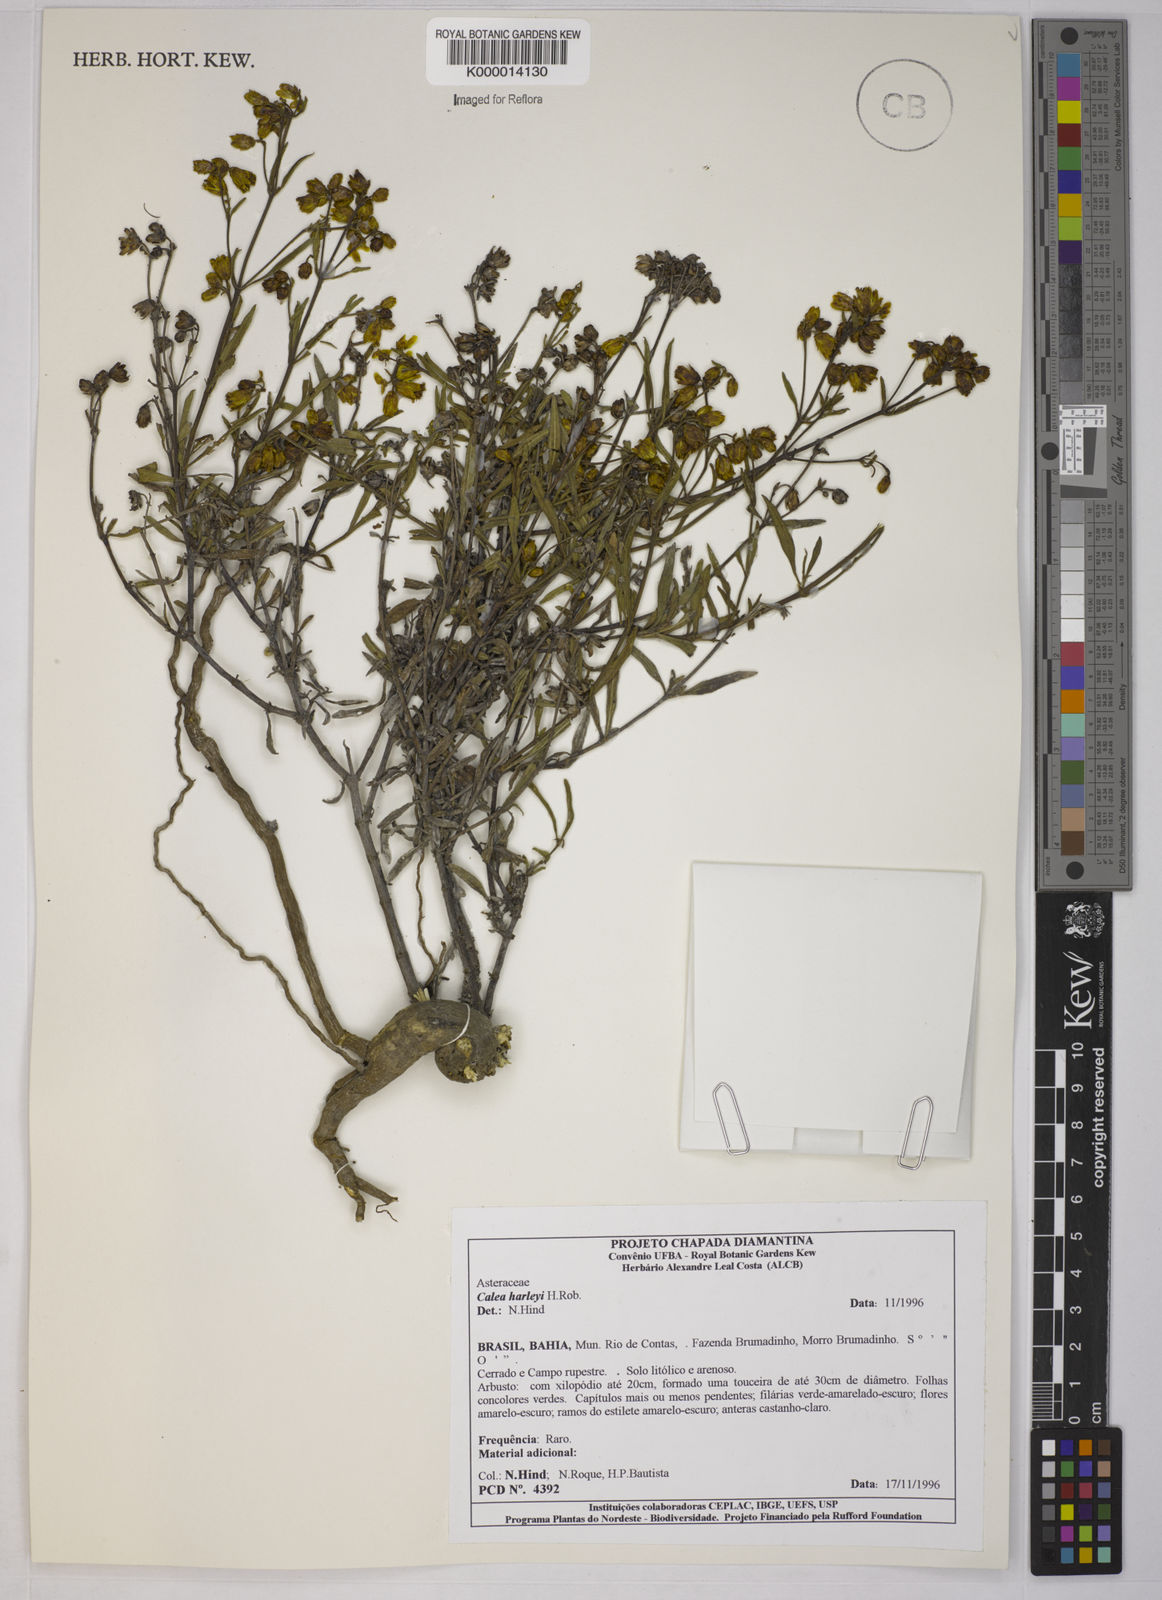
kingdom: Plantae
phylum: Tracheophyta
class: Magnoliopsida
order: Asterales
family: Asteraceae
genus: Calea
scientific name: Calea harleyi
